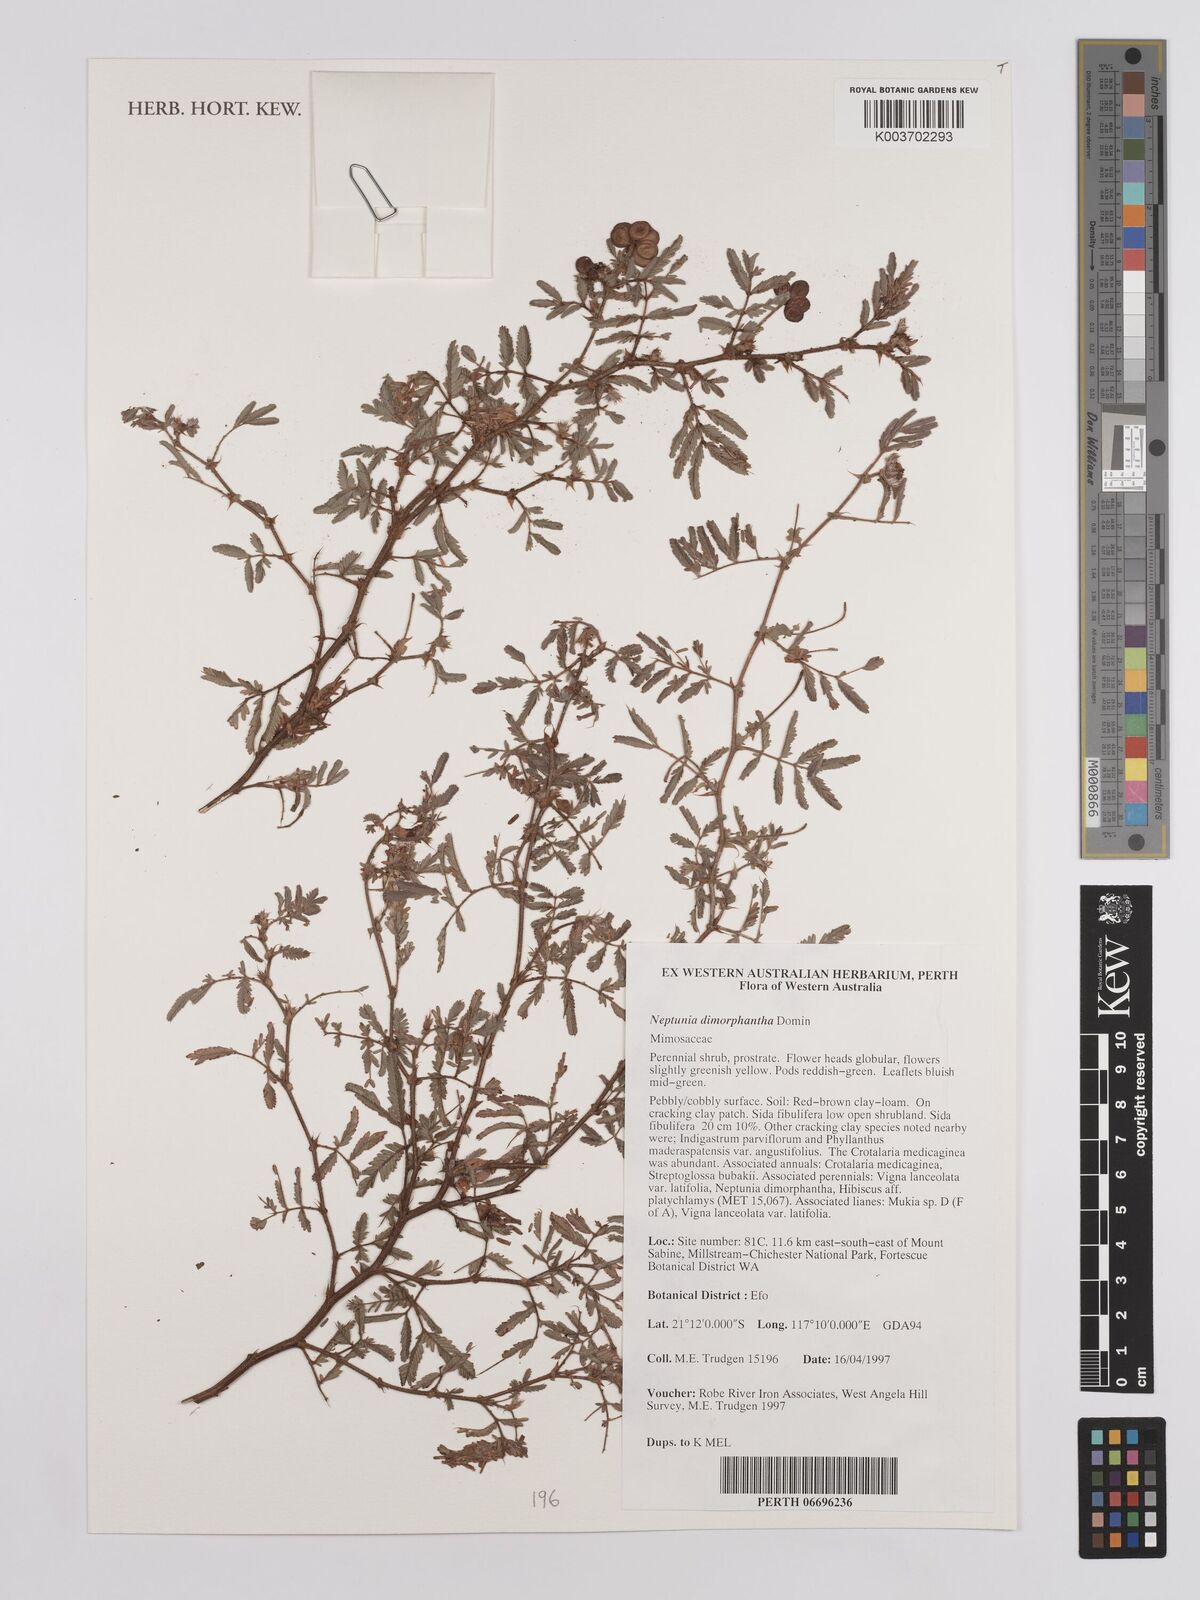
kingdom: Plantae
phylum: Tracheophyta
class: Magnoliopsida
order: Fabales
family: Fabaceae
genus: Neptunia
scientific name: Neptunia dimorphantha
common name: Sensitive-plant
